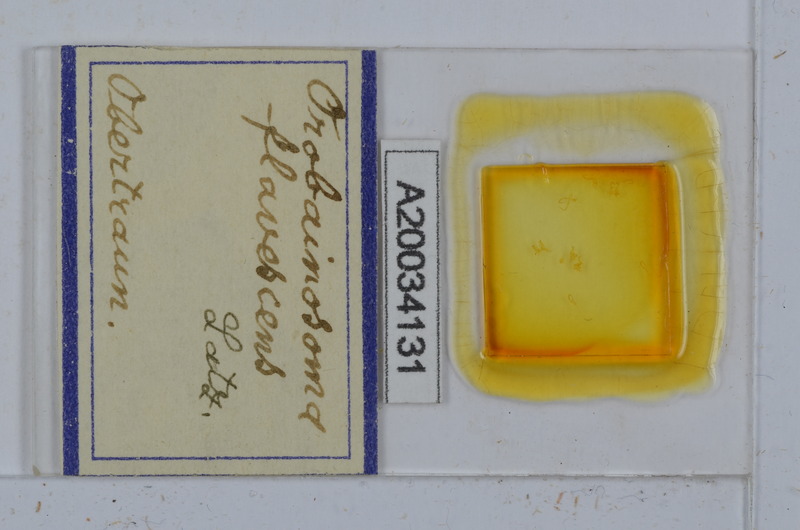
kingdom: Animalia
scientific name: Animalia
